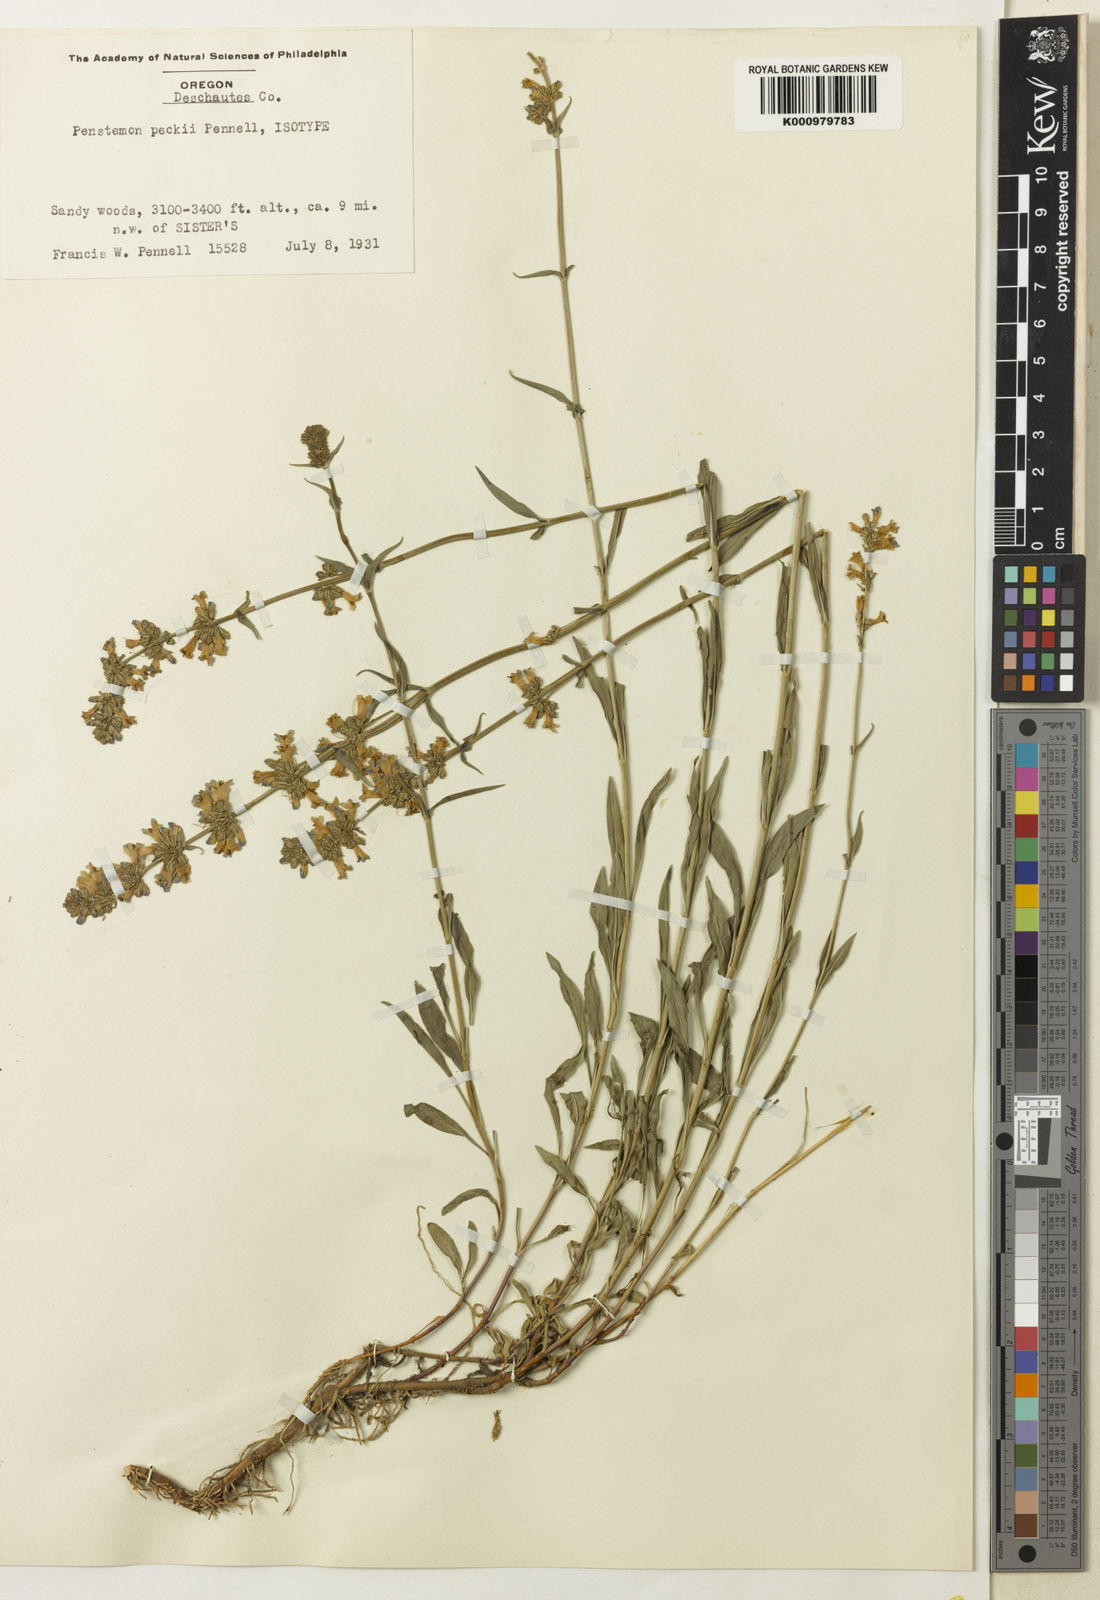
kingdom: Plantae
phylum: Tracheophyta
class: Magnoliopsida
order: Lamiales
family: Plantaginaceae
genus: Penstemon
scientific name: Penstemon peckii
